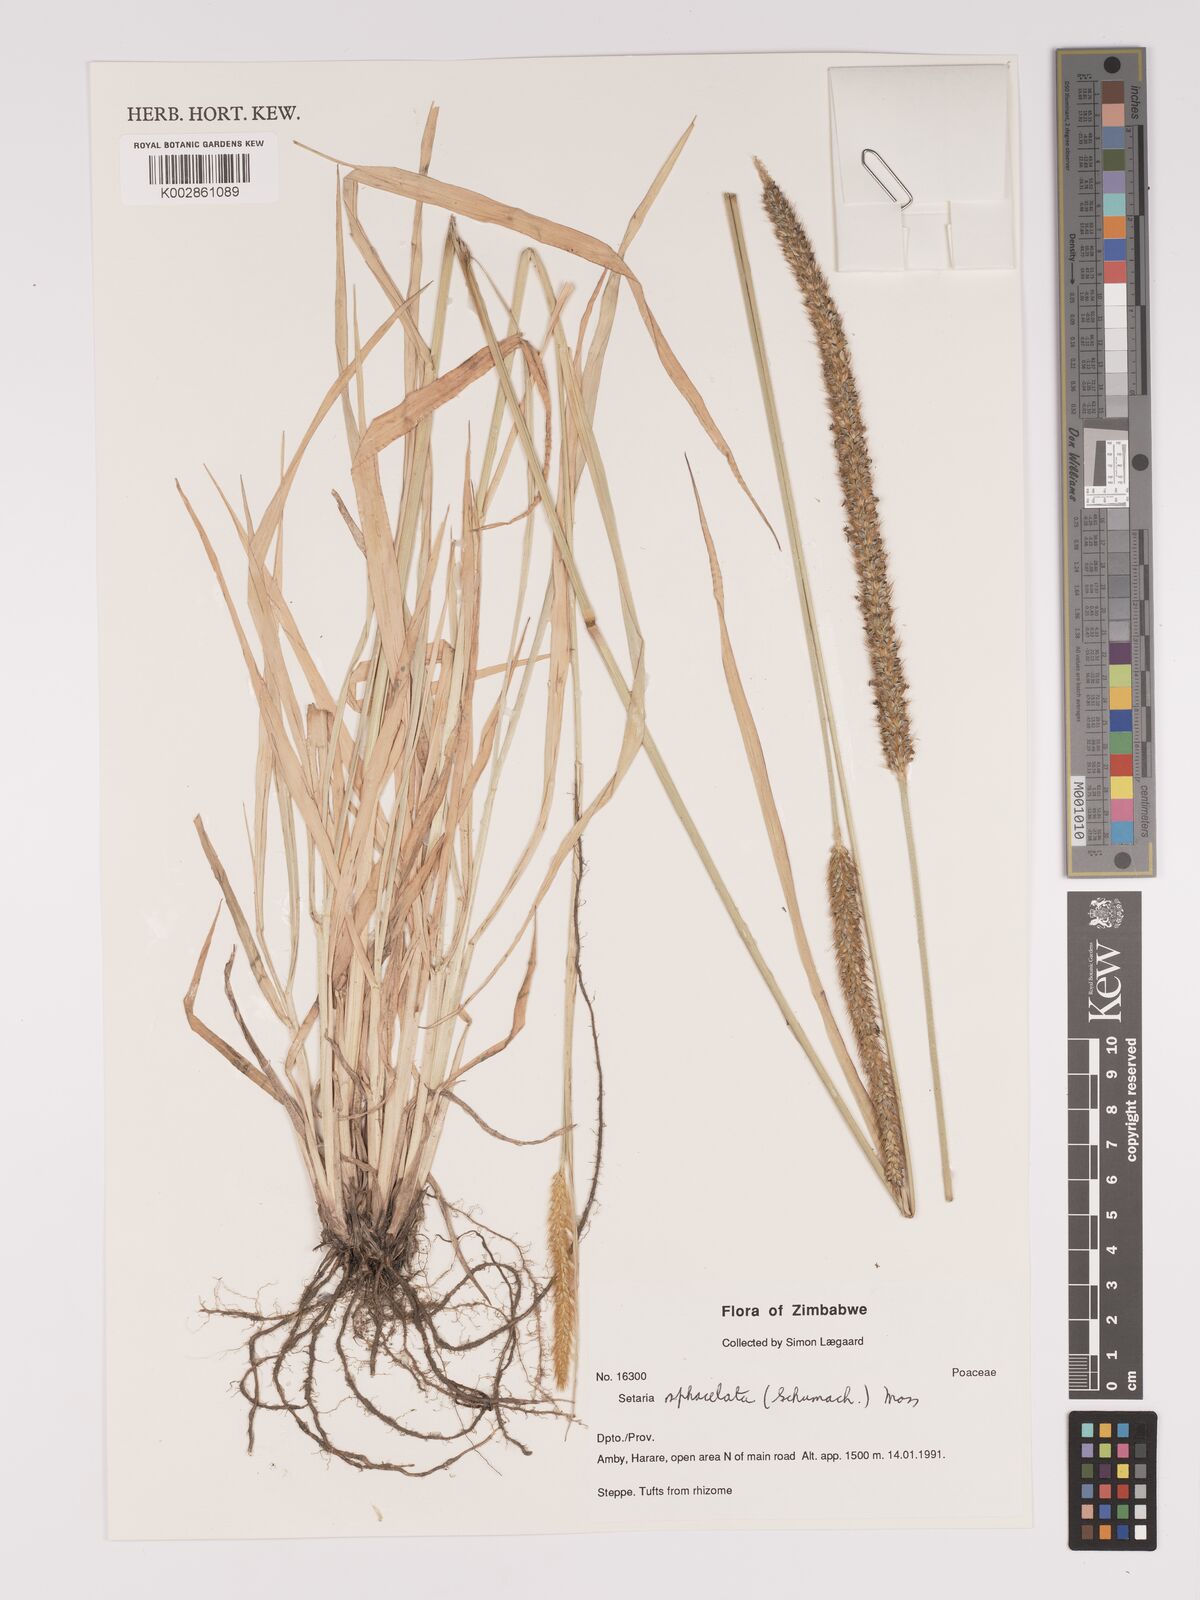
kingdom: Plantae
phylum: Tracheophyta
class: Liliopsida
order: Poales
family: Poaceae
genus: Setaria
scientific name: Setaria sphacelata
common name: African bristlegrass
